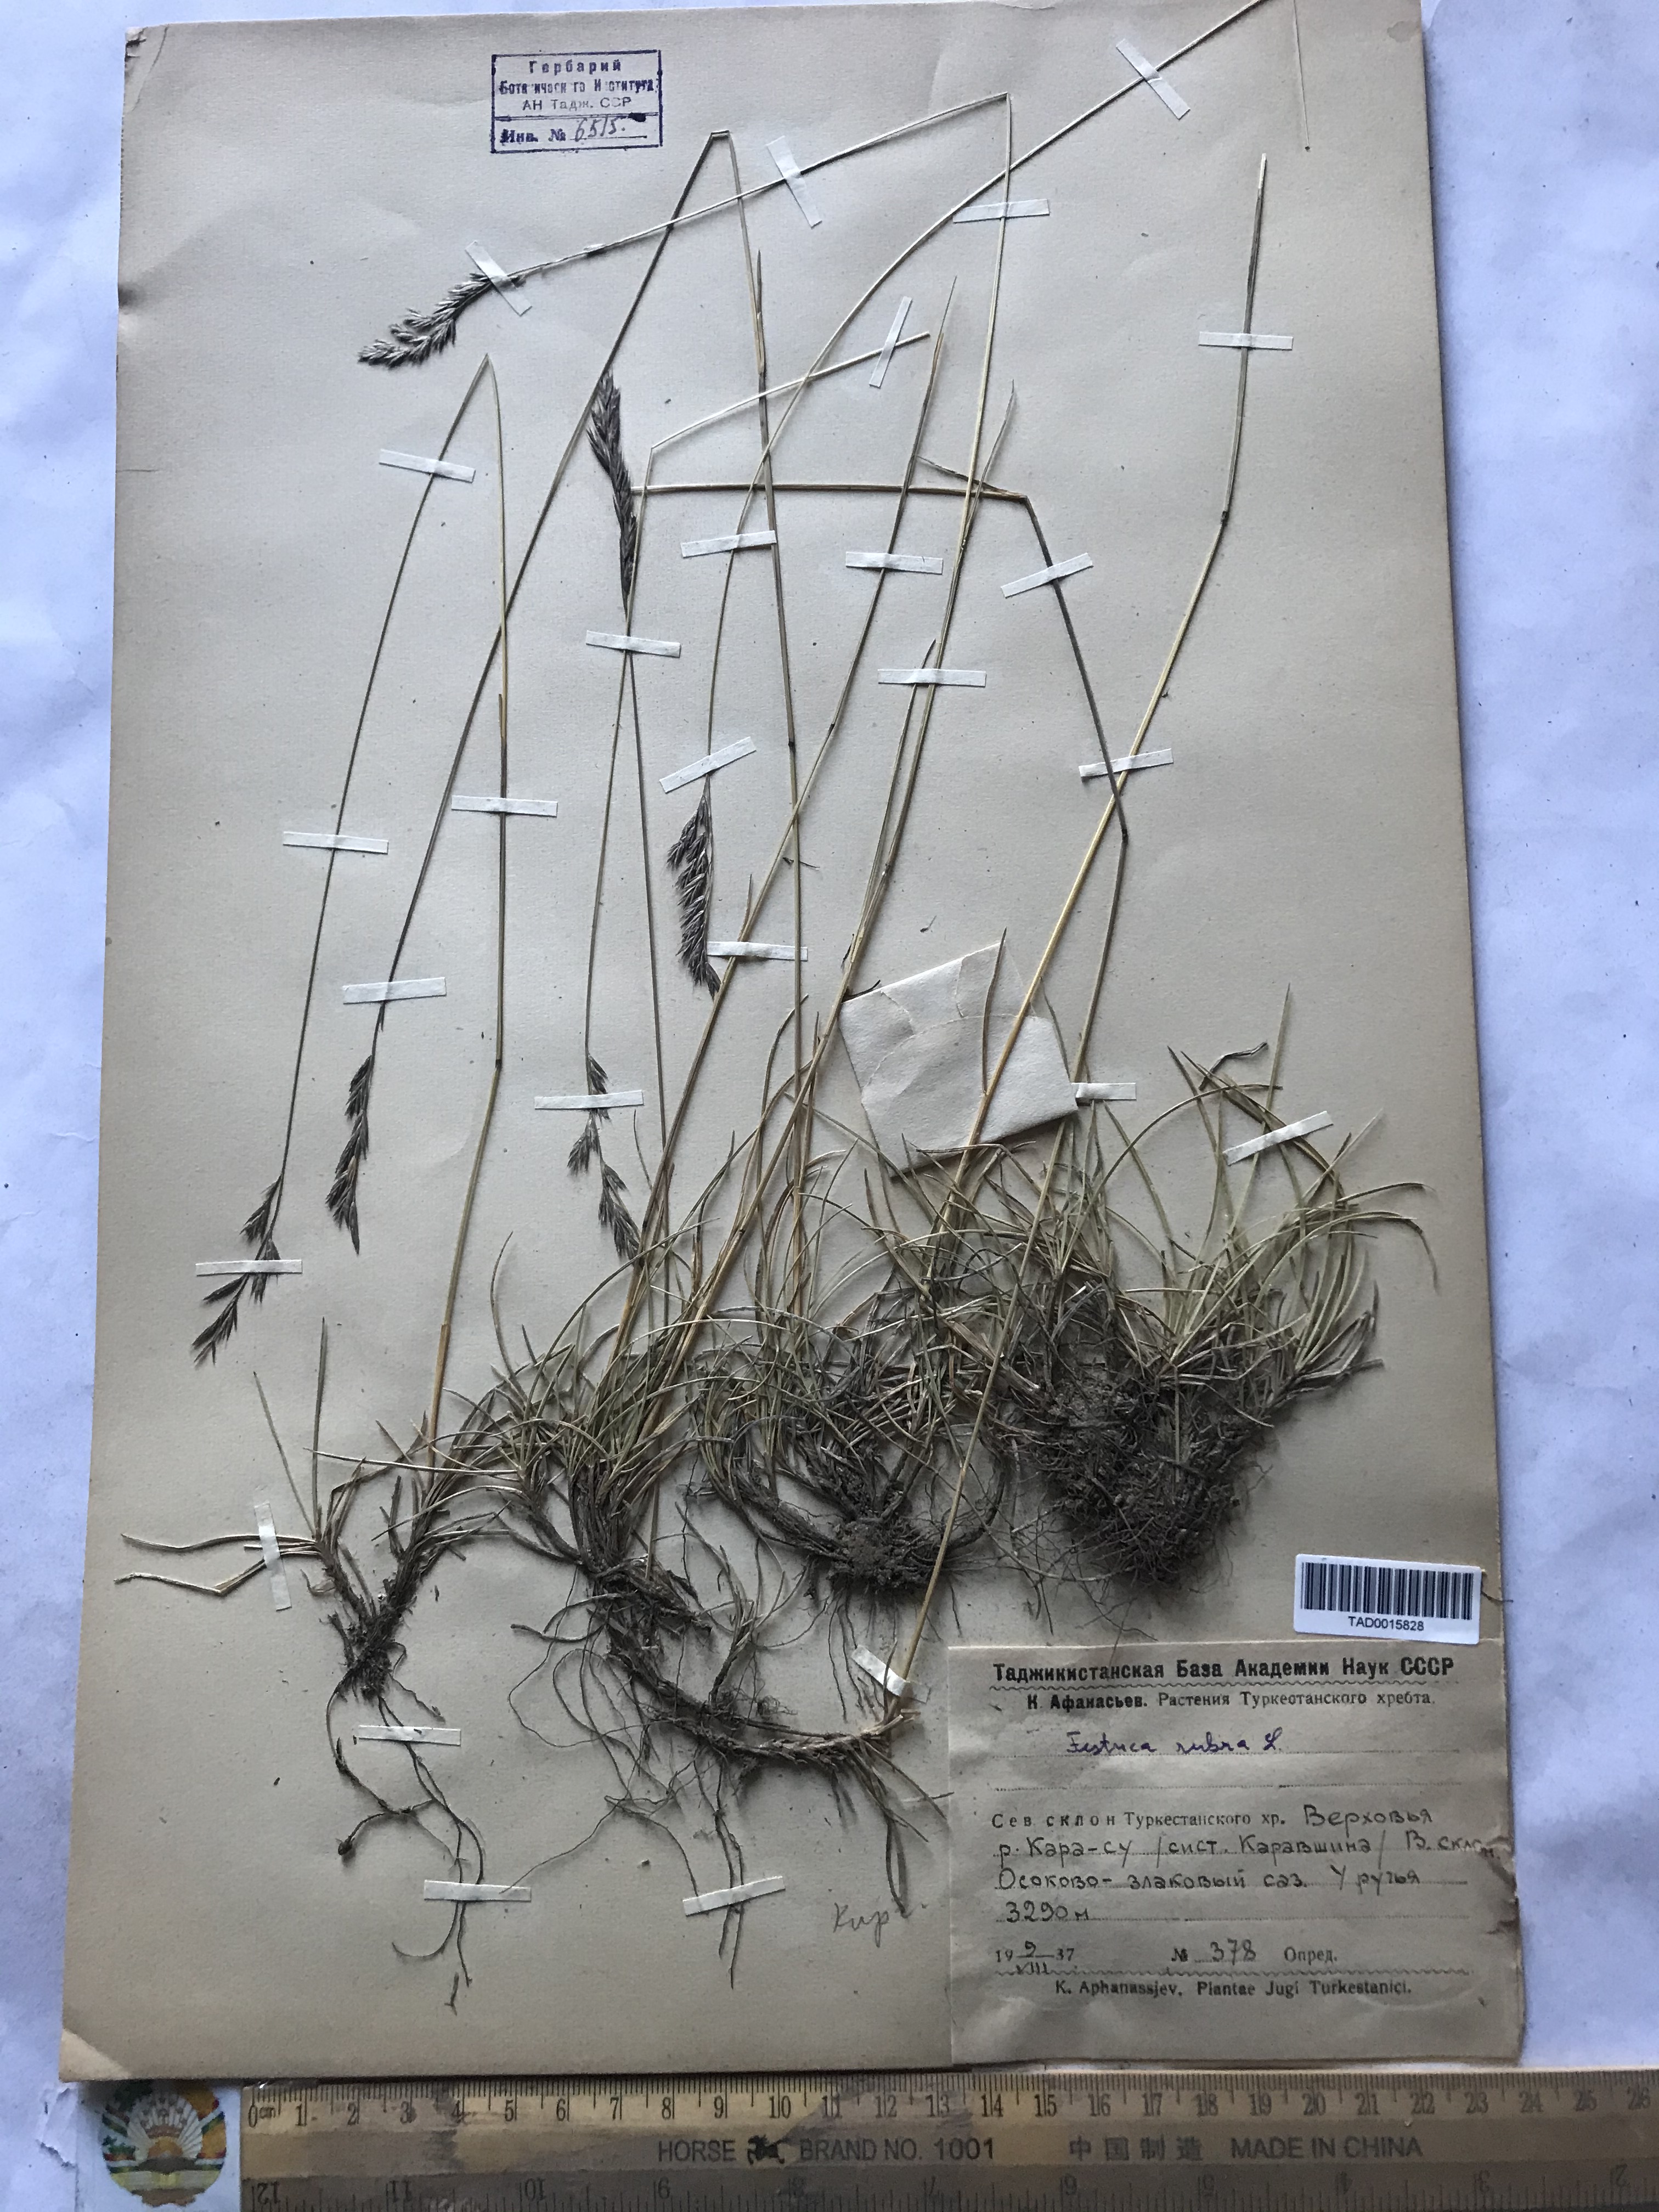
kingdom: Plantae
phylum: Tracheophyta
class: Liliopsida
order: Poales
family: Poaceae
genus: Festuca
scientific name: Festuca rubra
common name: Red fescue
